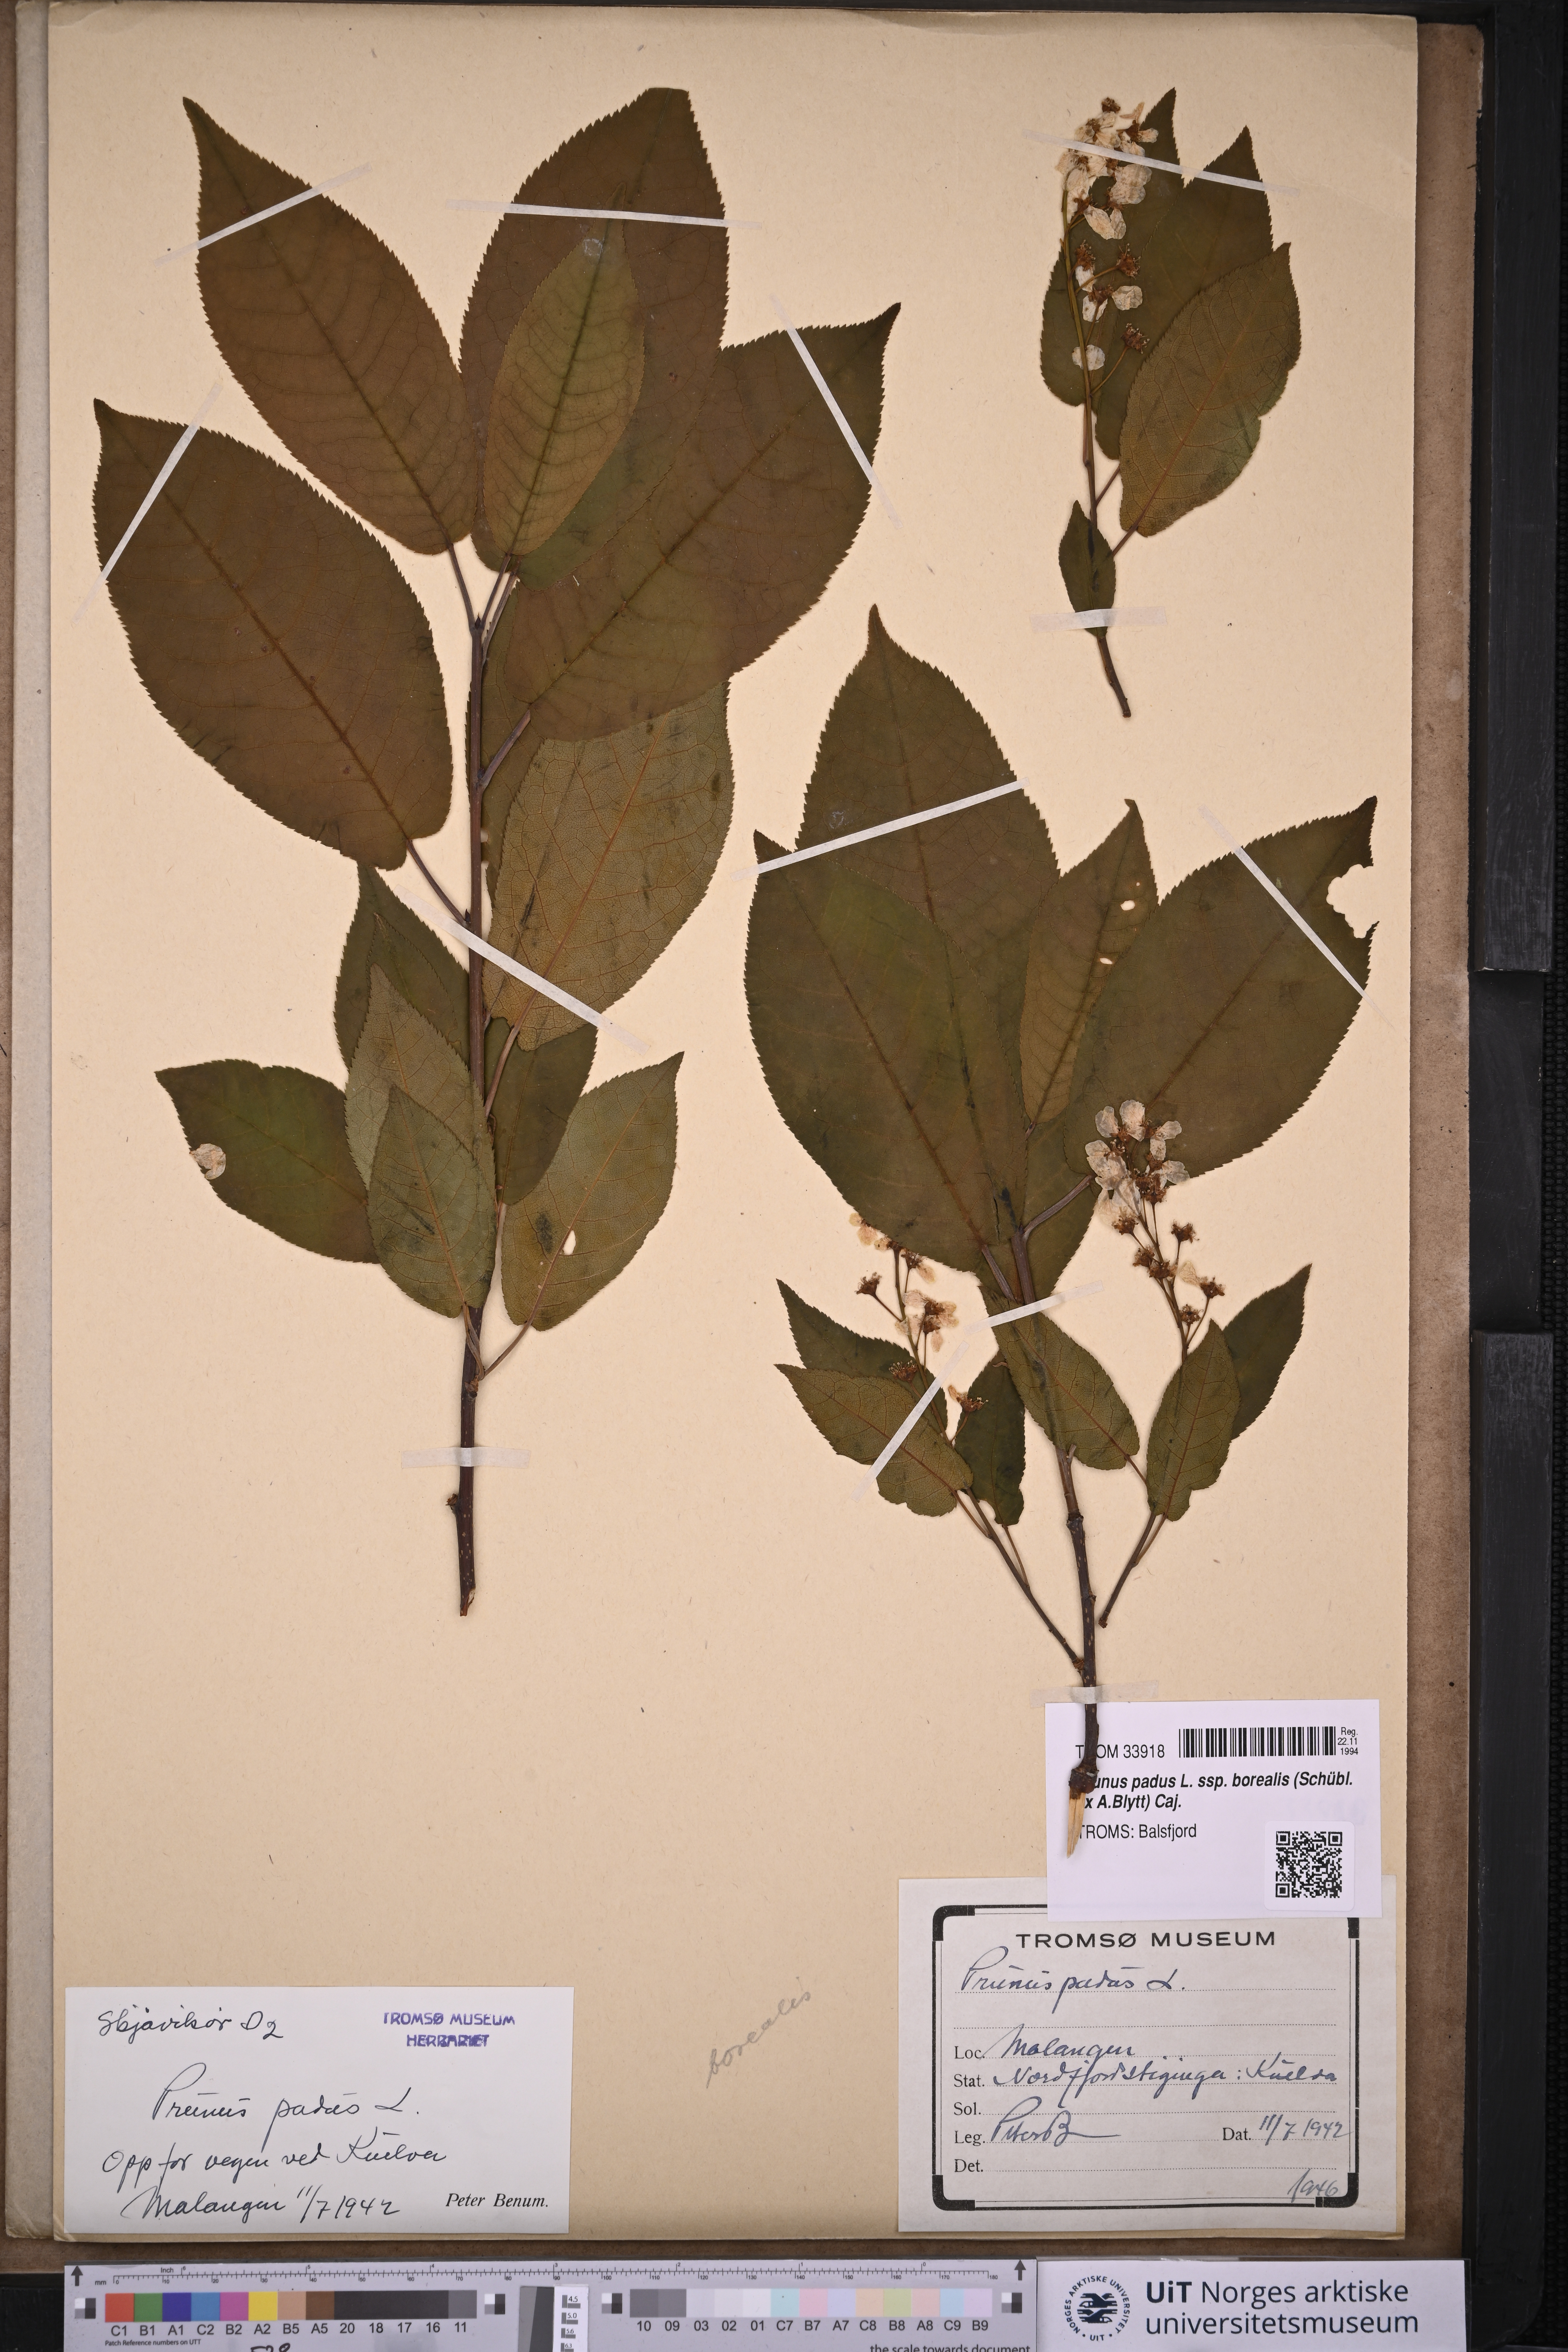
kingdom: Plantae
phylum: Tracheophyta
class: Magnoliopsida
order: Rosales
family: Rosaceae
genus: Prunus
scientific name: Prunus padus
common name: Bird cherry
